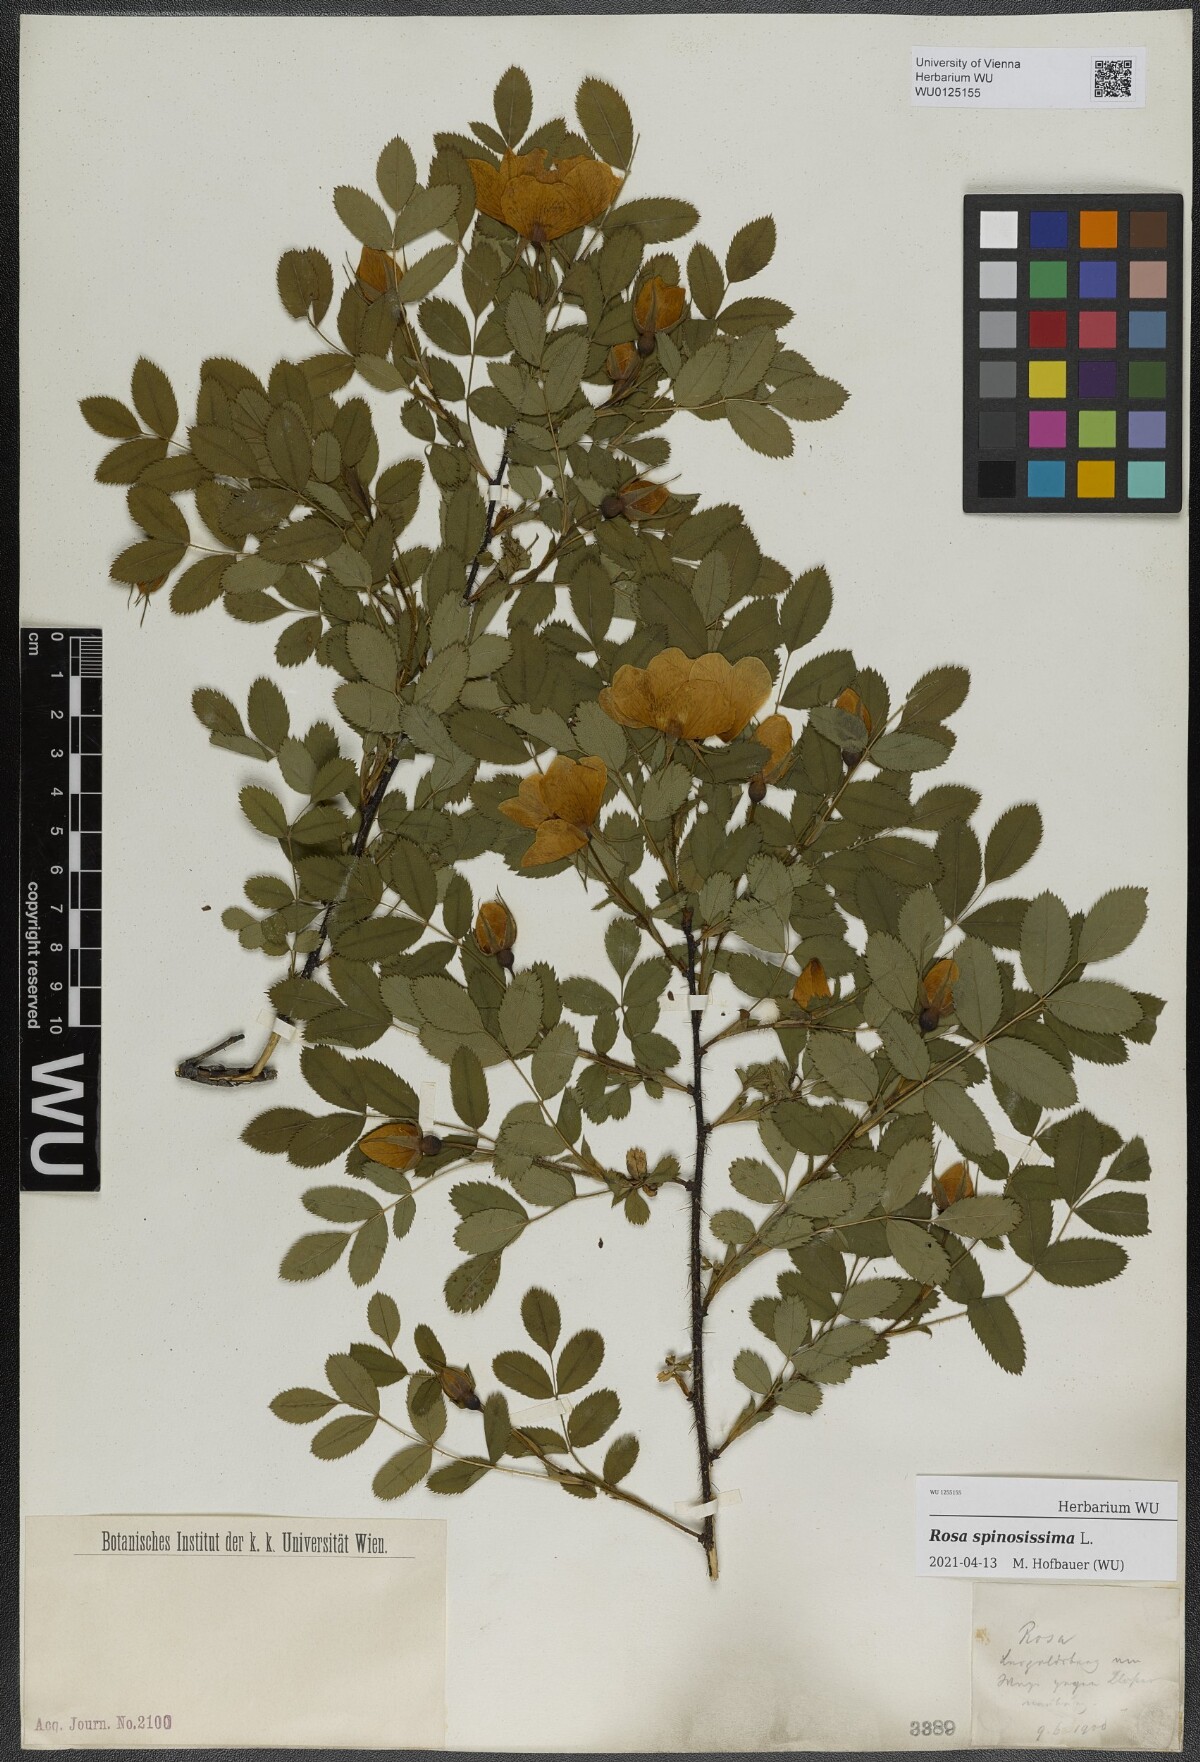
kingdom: Plantae
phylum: Tracheophyta
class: Magnoliopsida
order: Rosales
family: Rosaceae
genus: Rosa
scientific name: Rosa spinosissima
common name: Burnet rose
